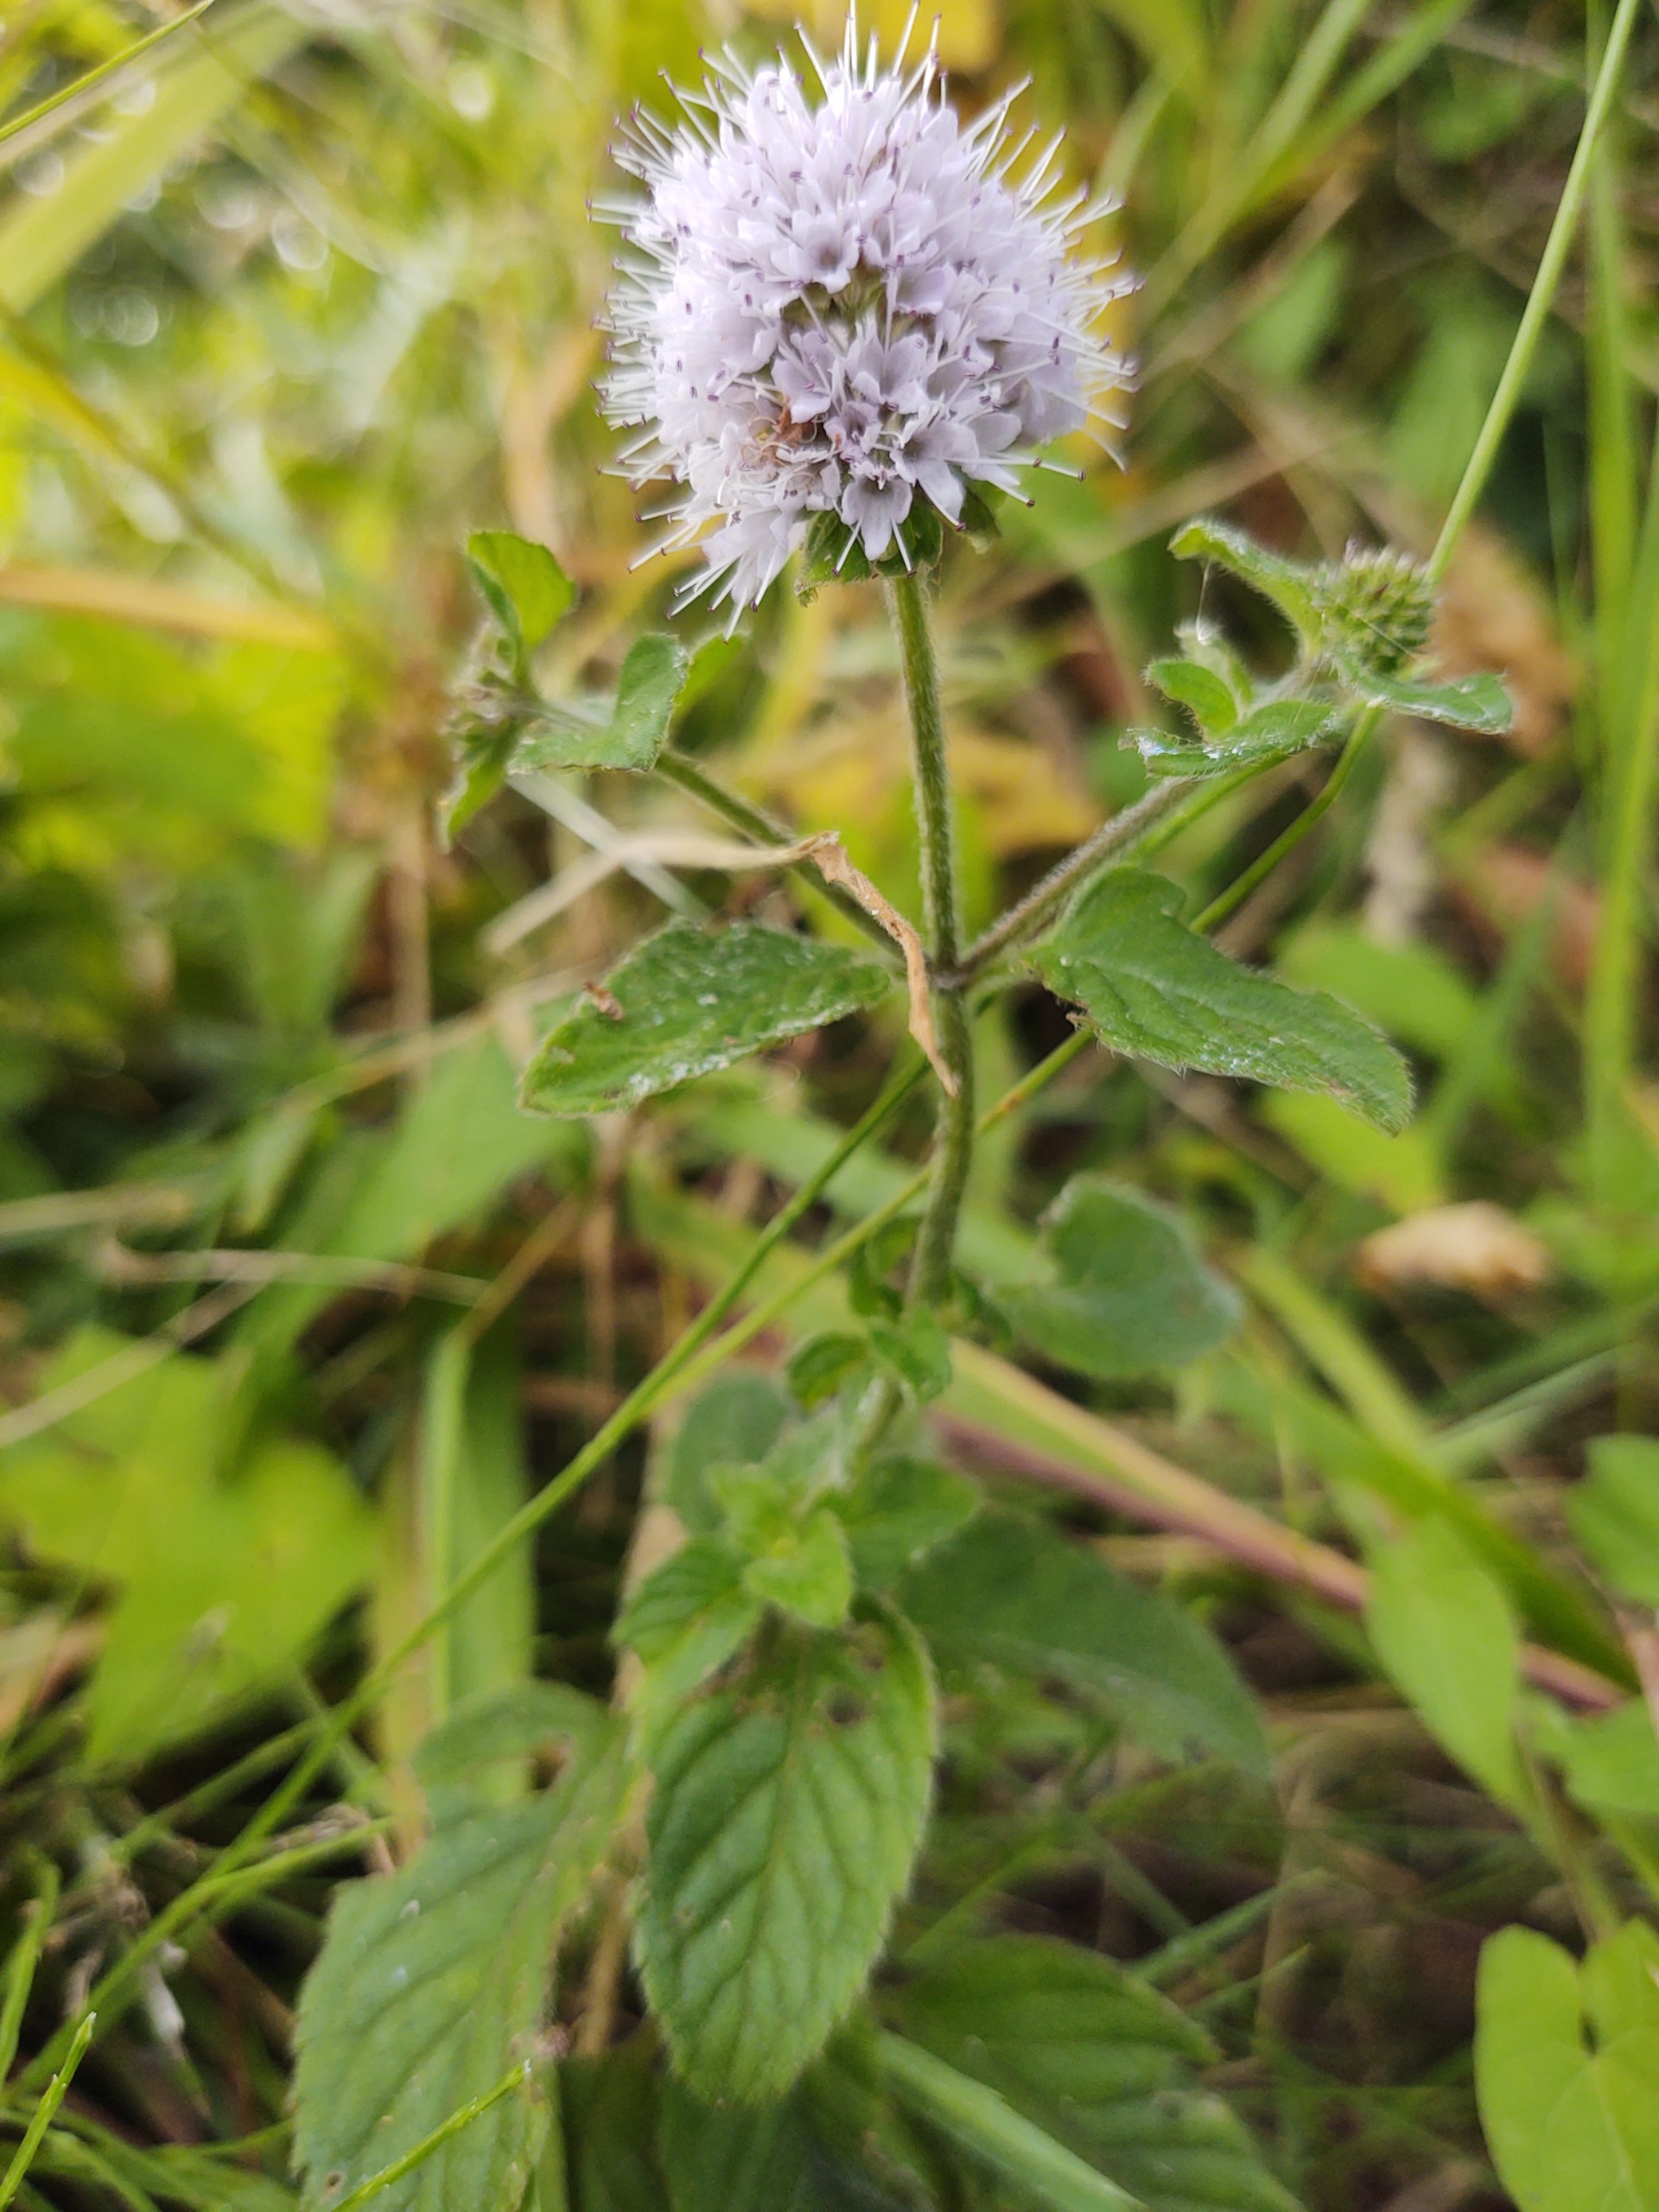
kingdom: Plantae
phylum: Tracheophyta
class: Magnoliopsida
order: Lamiales
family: Lamiaceae
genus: Mentha
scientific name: Mentha aquatica
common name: Vand-mynte
